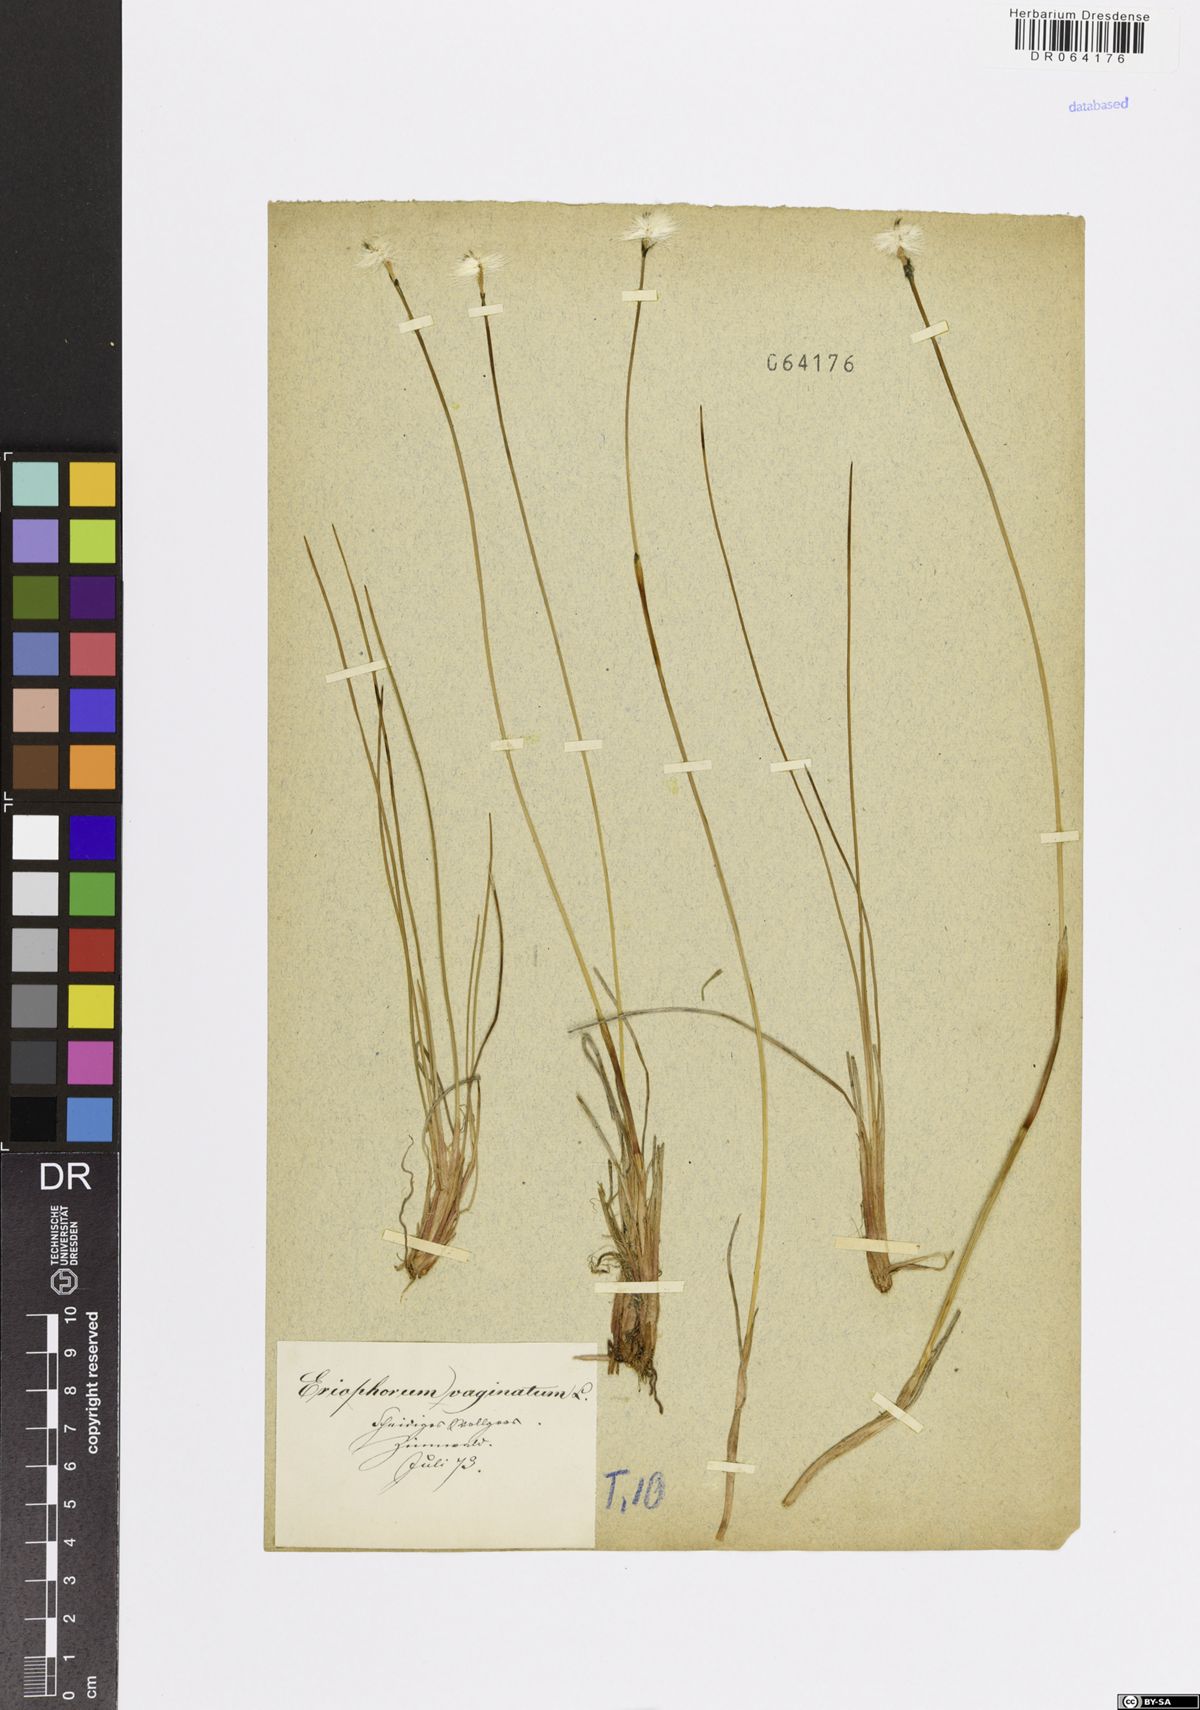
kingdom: Plantae
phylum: Tracheophyta
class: Liliopsida
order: Poales
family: Cyperaceae
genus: Eriophorum
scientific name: Eriophorum vaginatum
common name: Hare's-tail cottongrass
